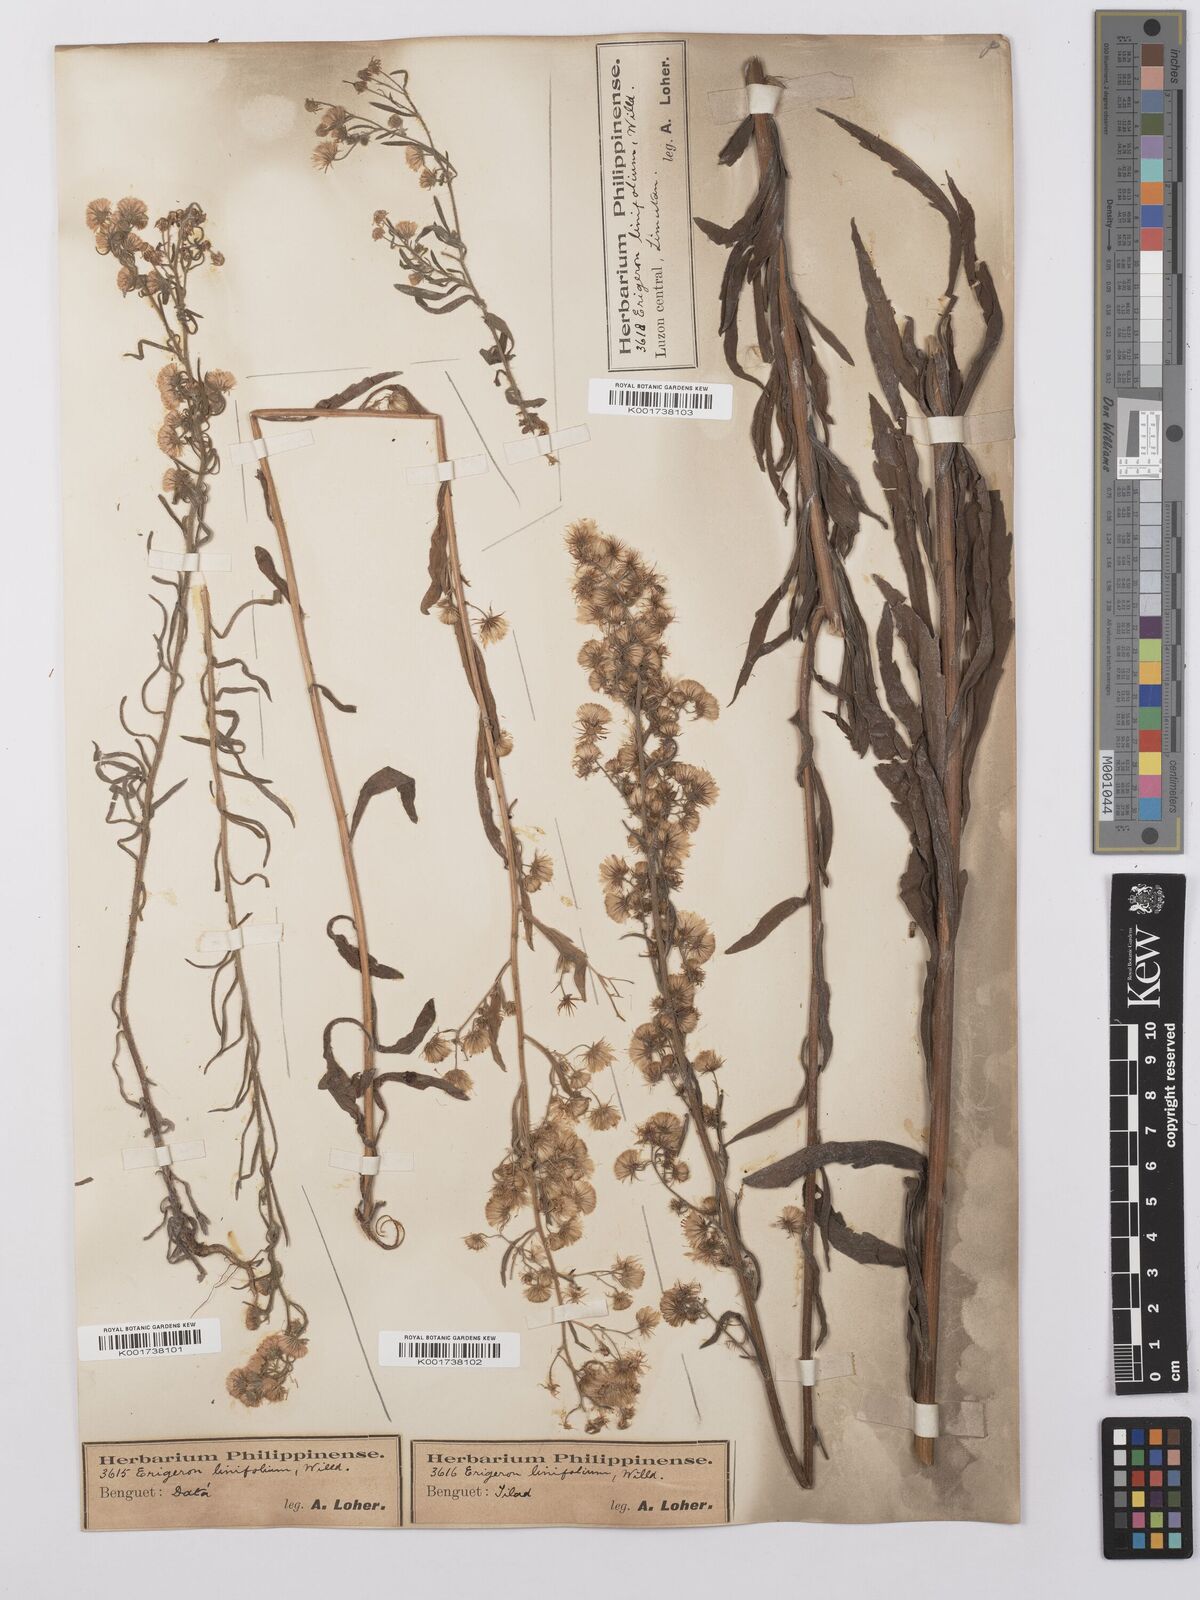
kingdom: Plantae
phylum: Tracheophyta
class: Magnoliopsida
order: Asterales
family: Asteraceae
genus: Erigeron
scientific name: Erigeron sumatrensis
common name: Daisy
